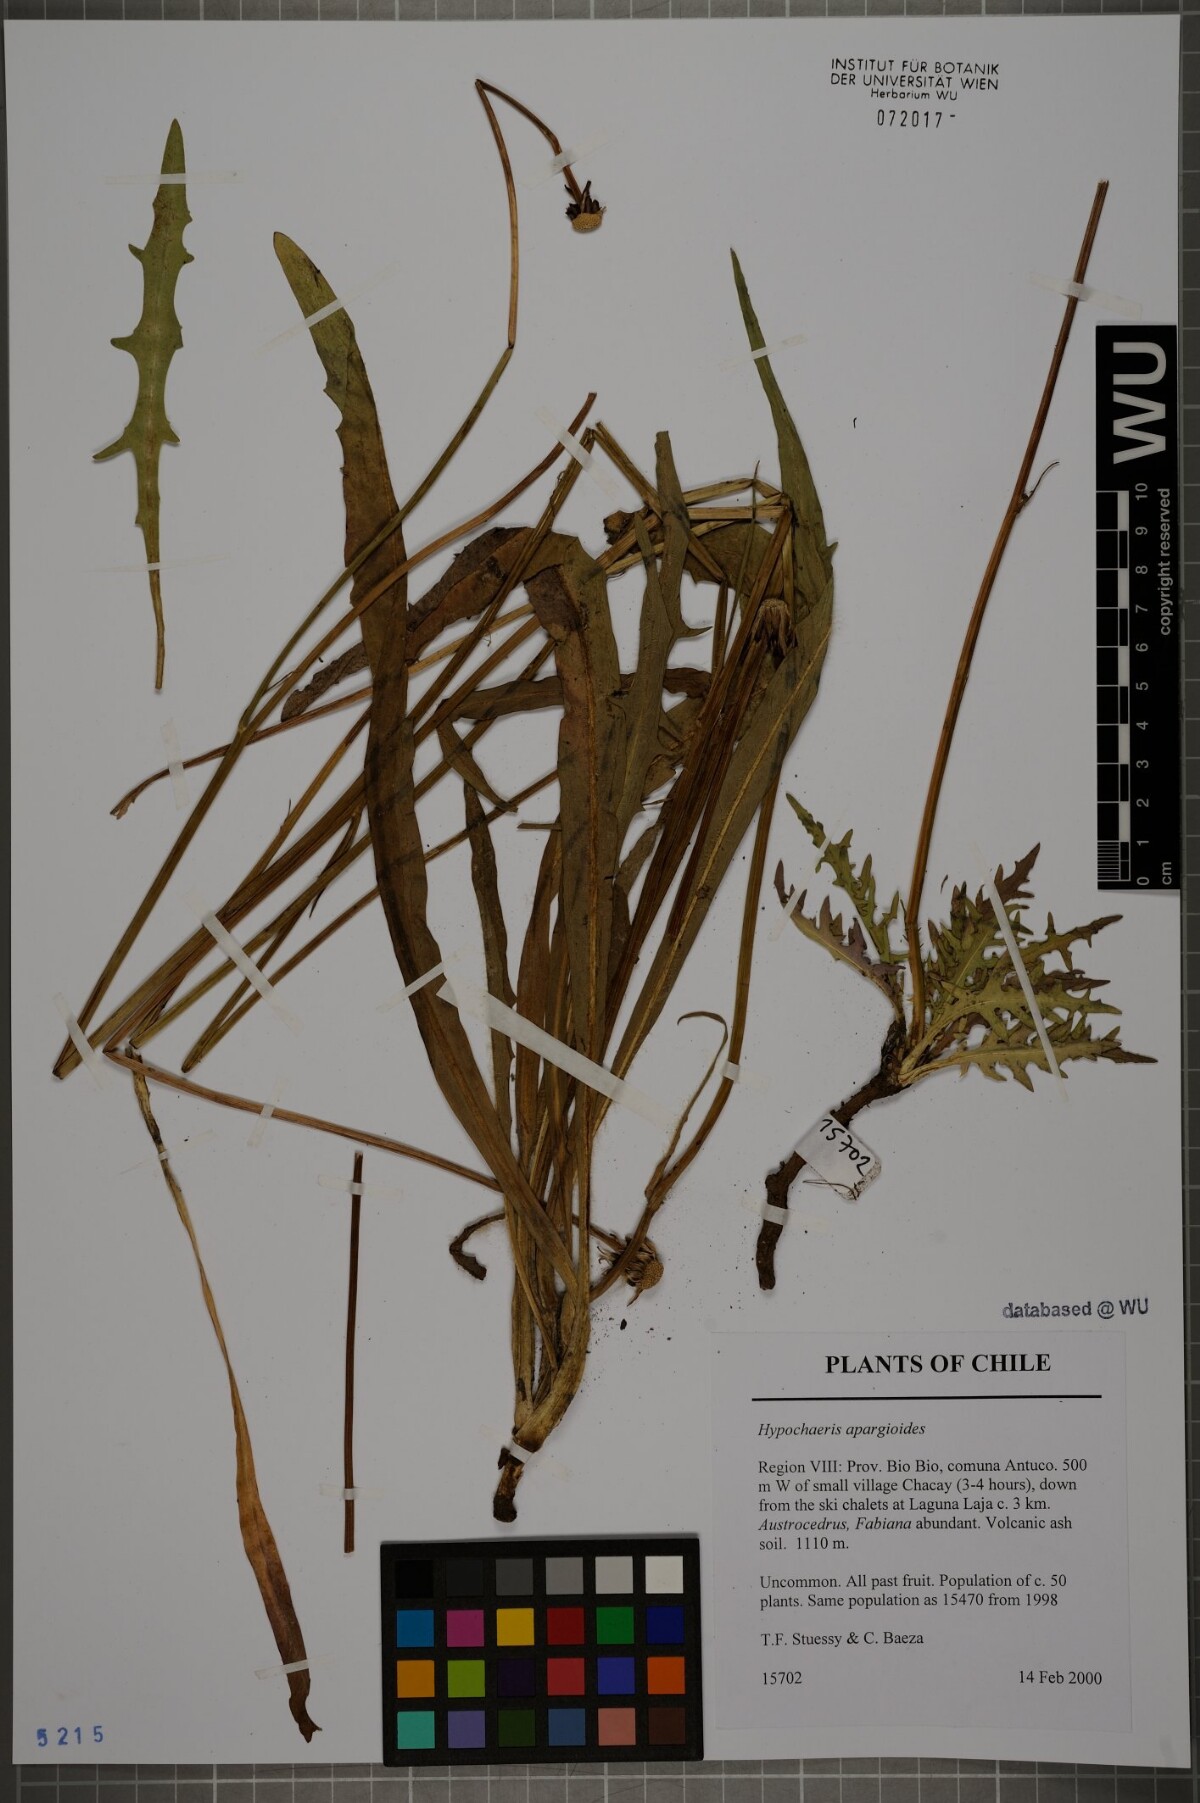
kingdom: Plantae
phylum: Tracheophyta
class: Magnoliopsida
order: Asterales
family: Asteraceae
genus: Hypochaeris
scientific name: Hypochaeris apargioides
